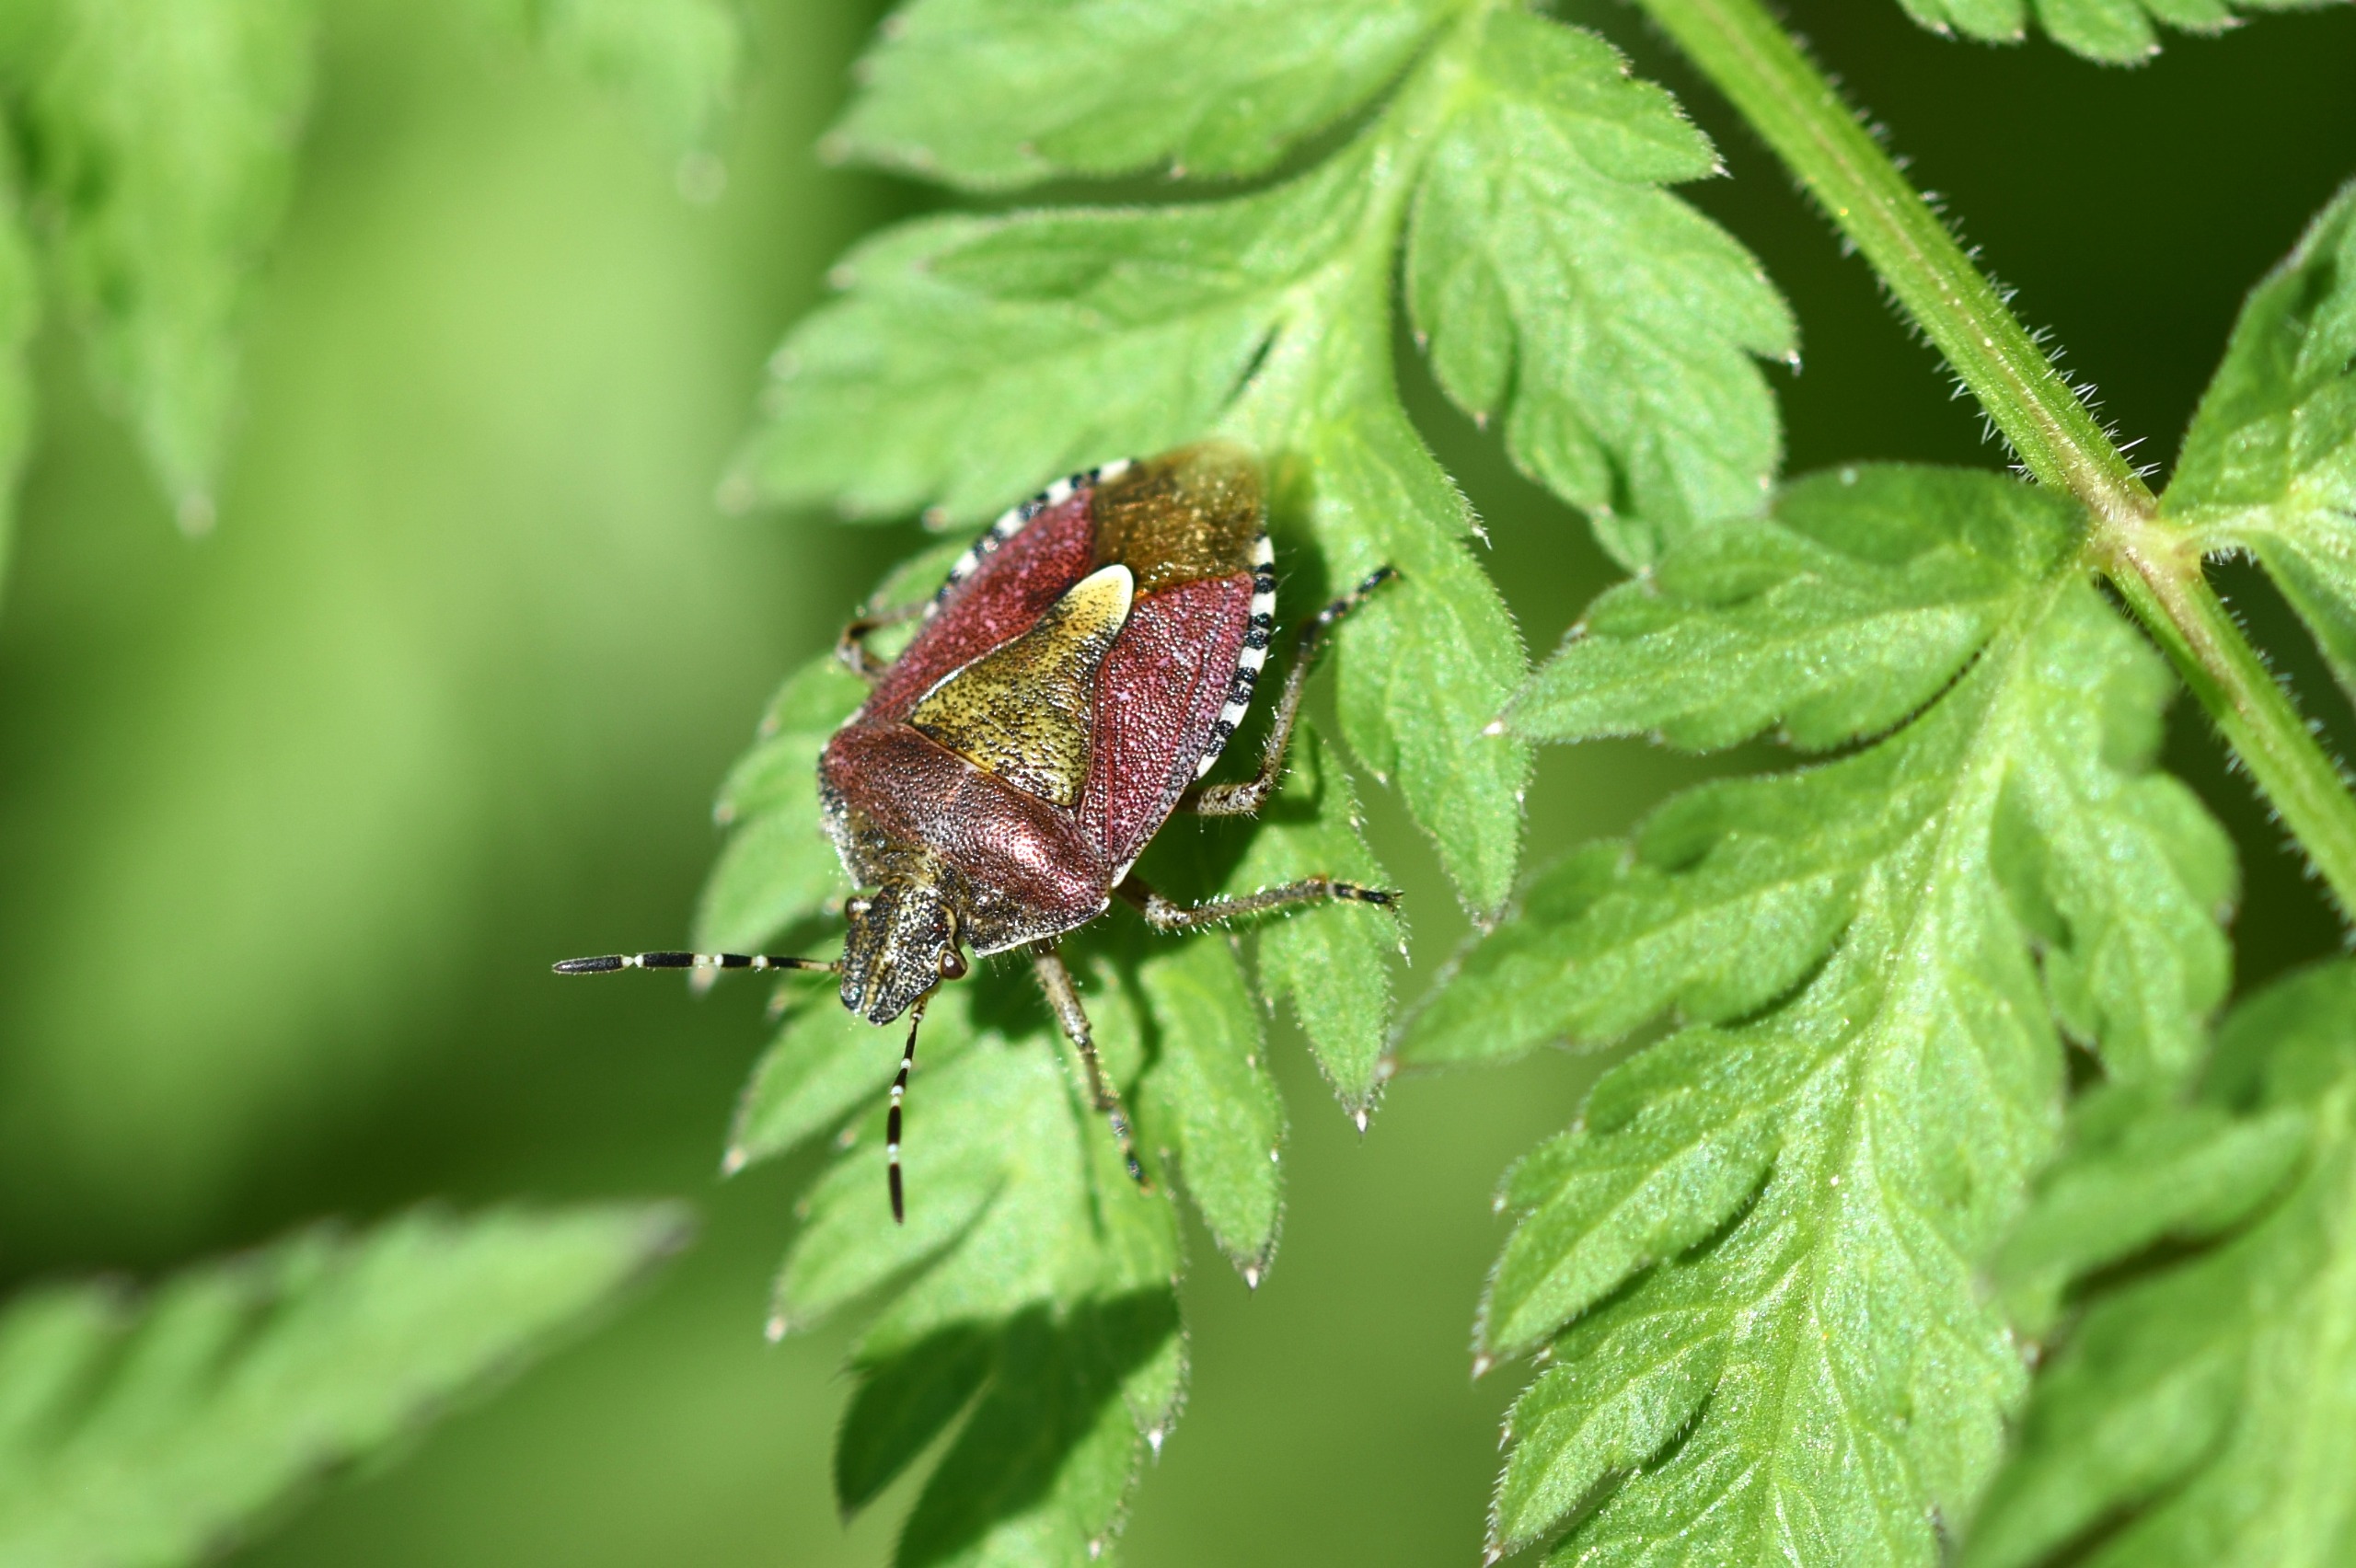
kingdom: Animalia
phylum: Arthropoda
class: Insecta
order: Hemiptera
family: Pentatomidae
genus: Dolycoris
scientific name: Dolycoris baccarum
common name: Almindelig bærtæge
